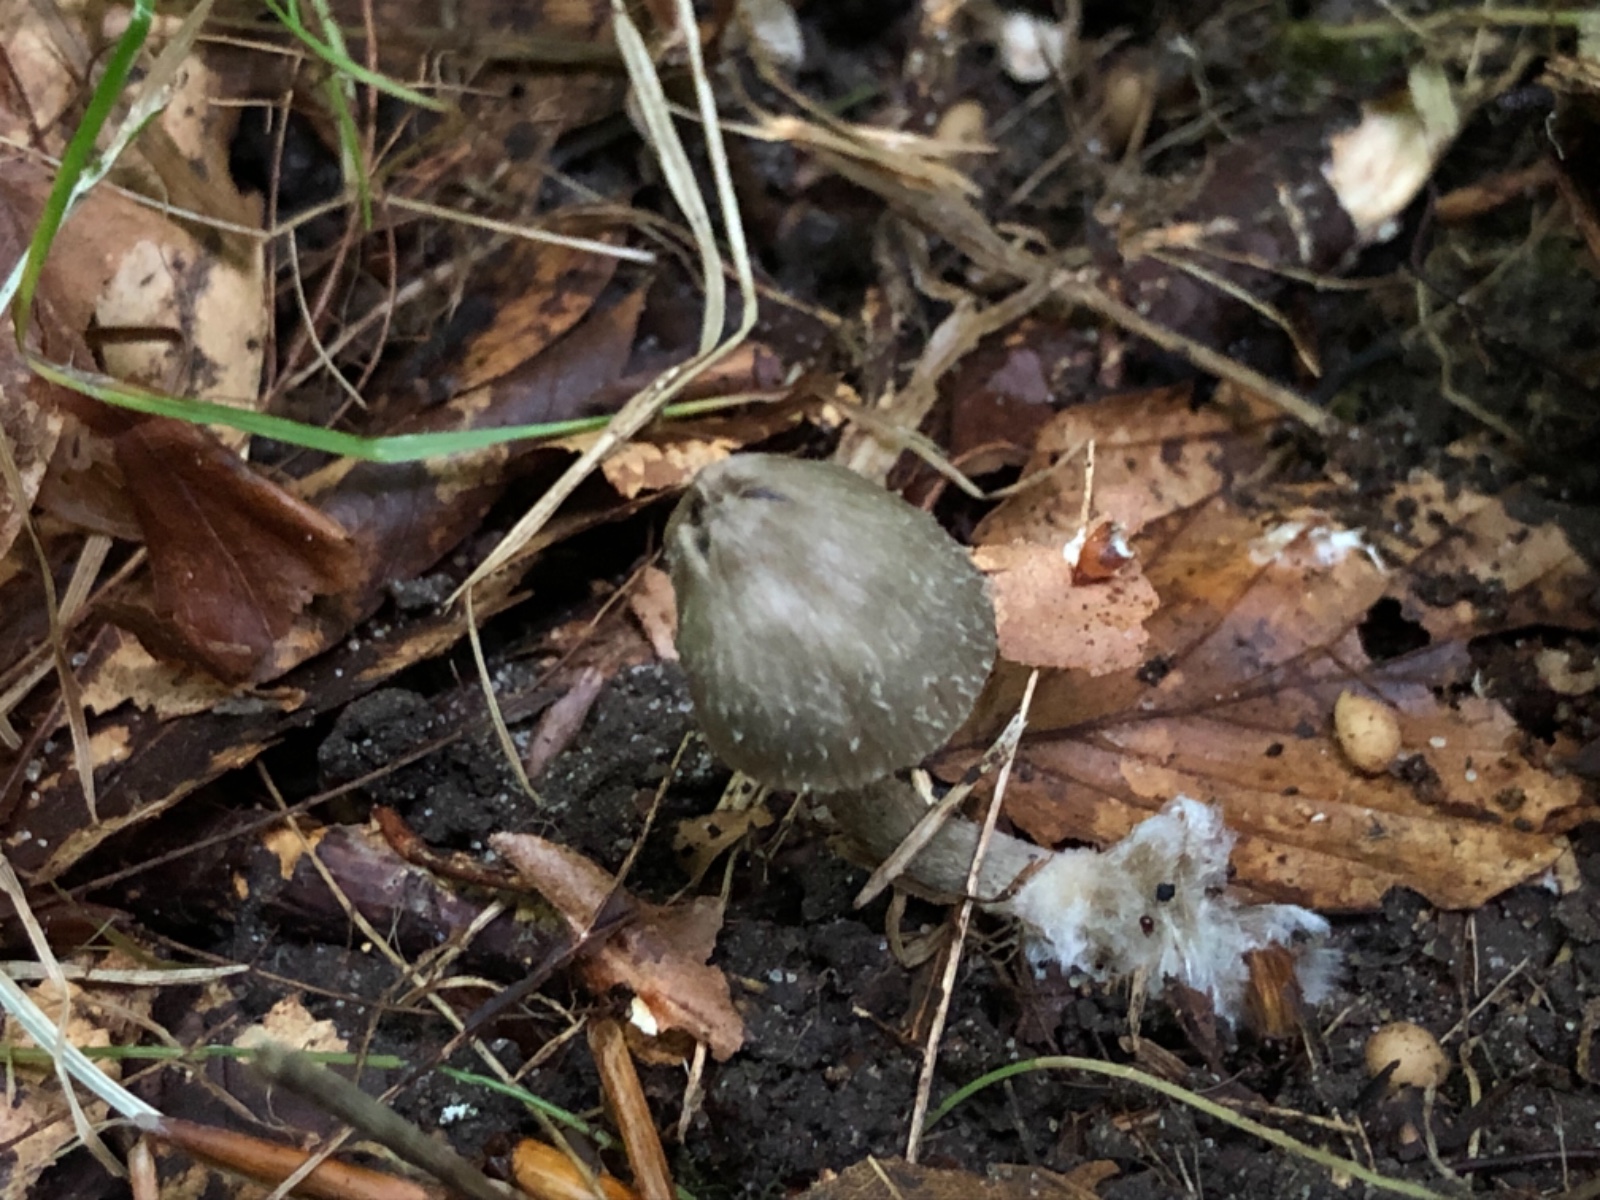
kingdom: Fungi
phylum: Basidiomycota
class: Agaricomycetes
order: Agaricales
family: Entolomataceae
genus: Entoloma
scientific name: Entoloma araneosum
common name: spindelvævs-rødblad
